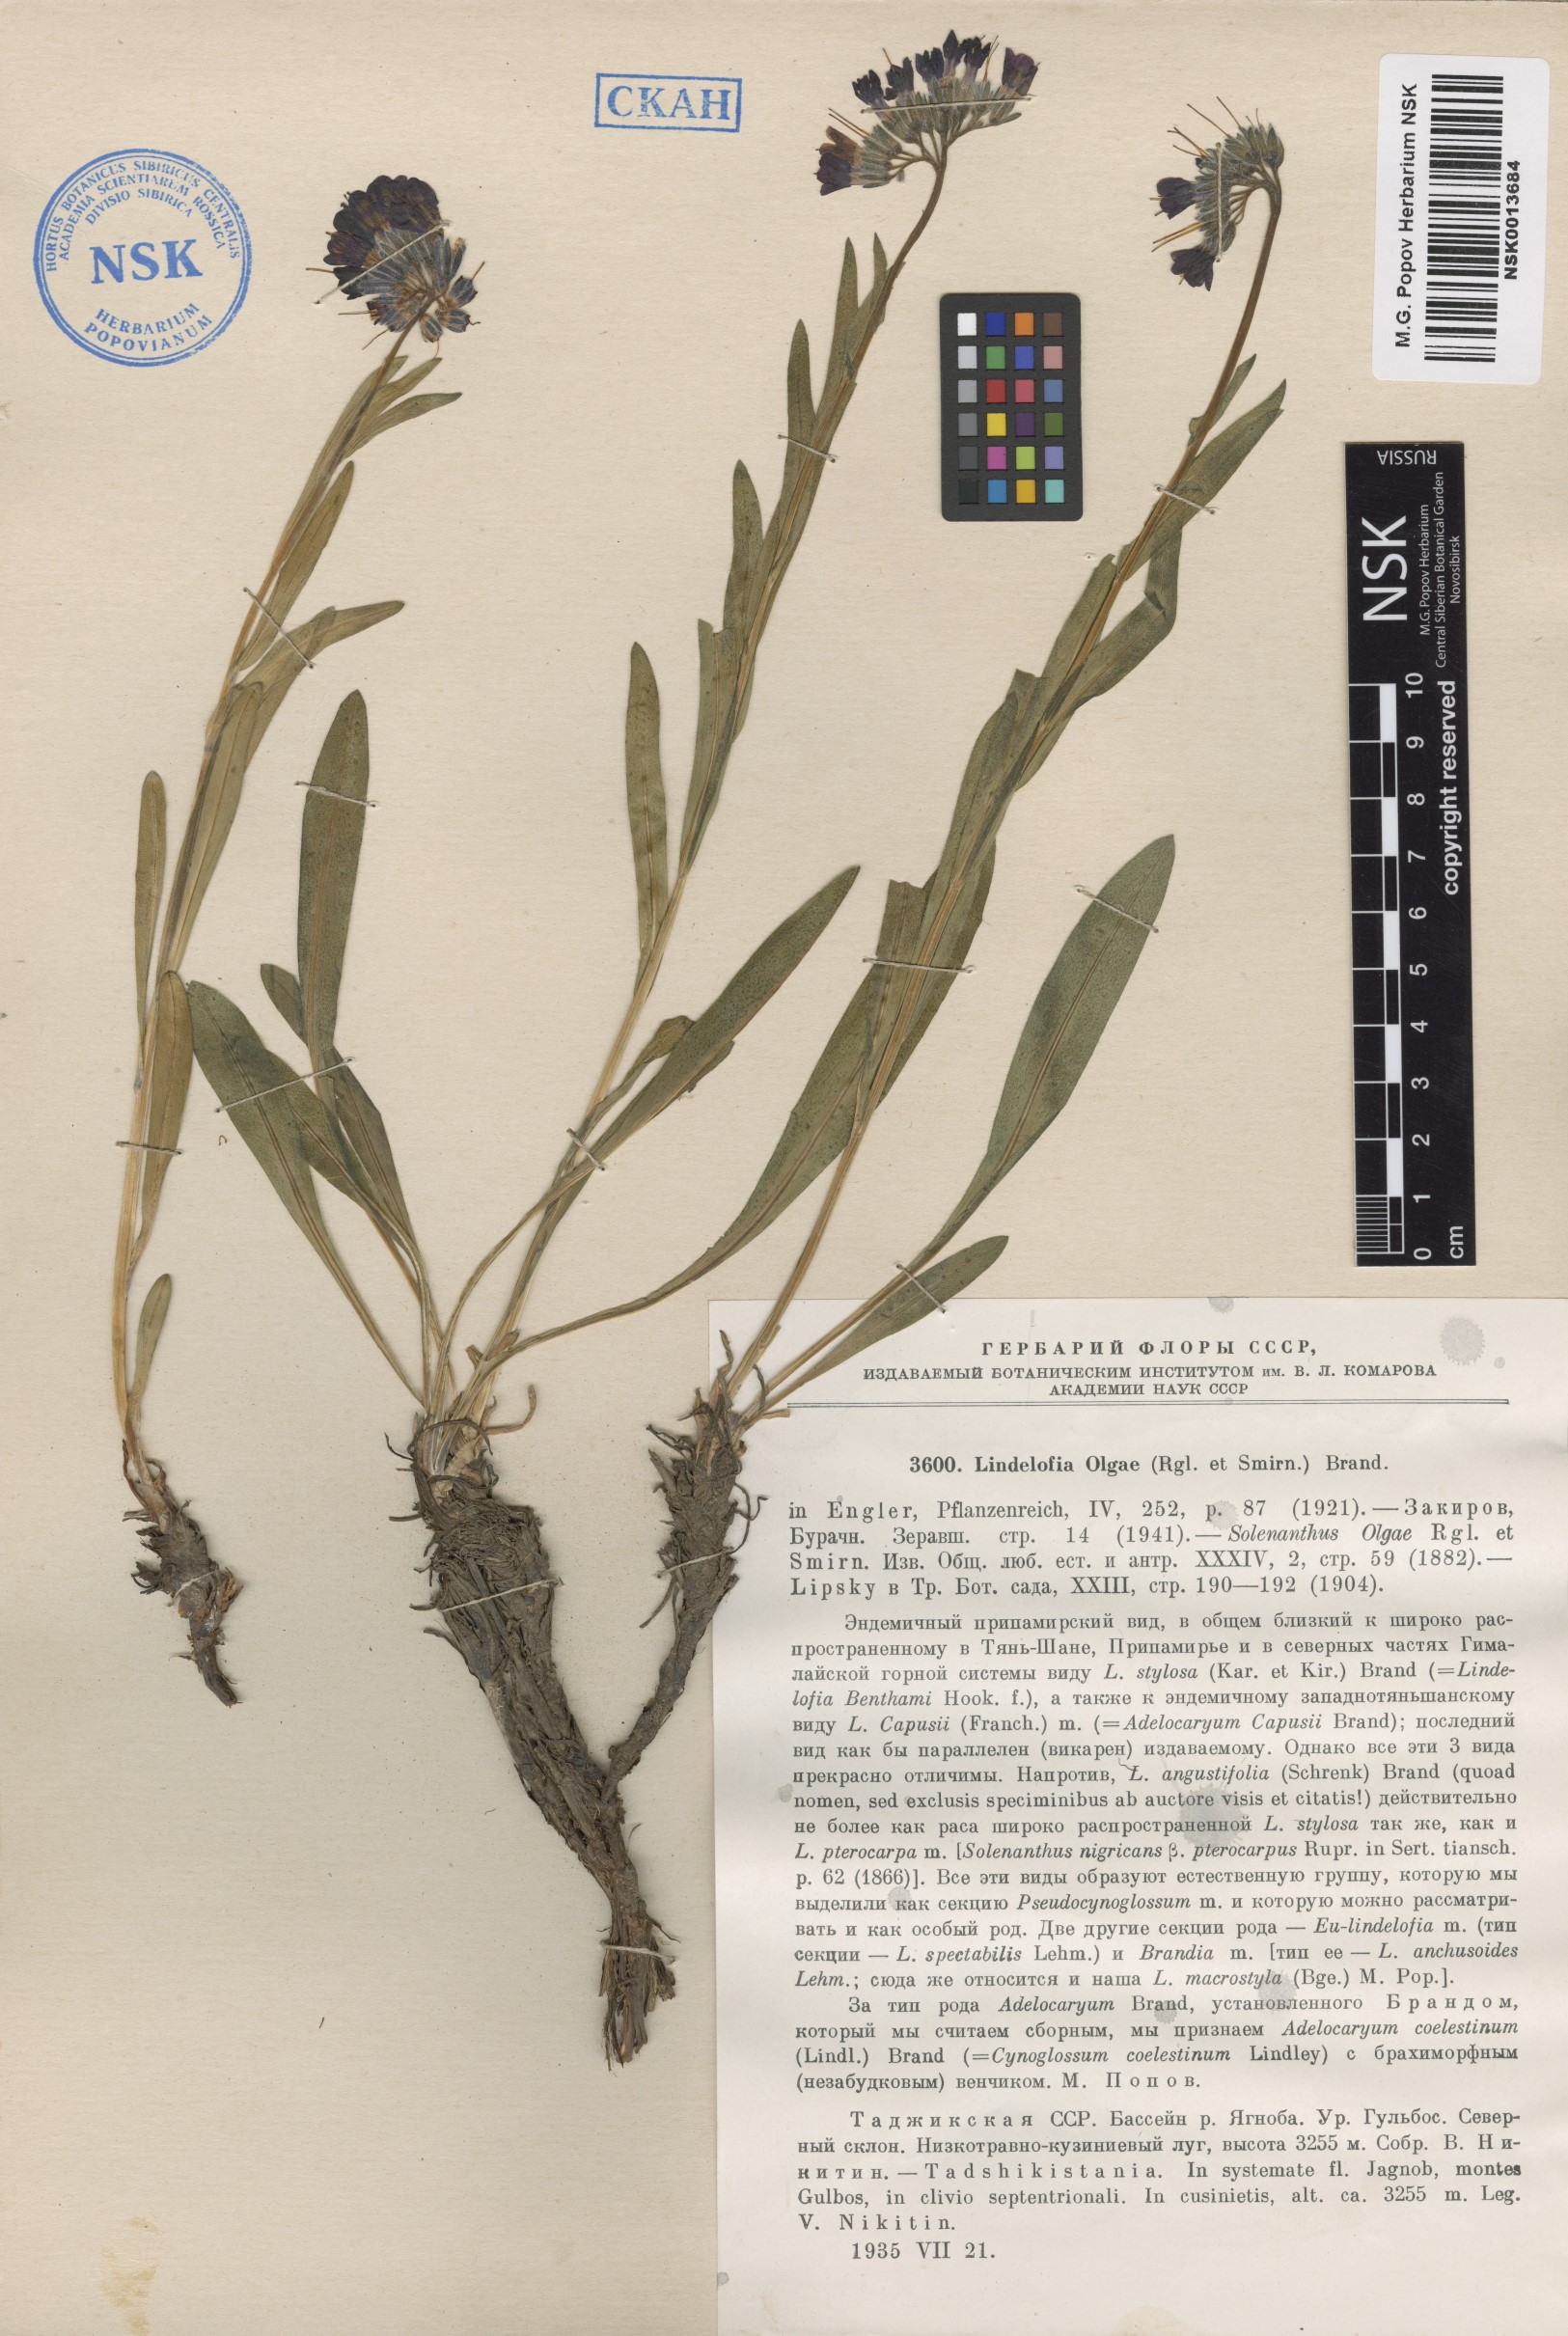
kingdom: Plantae
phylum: Tracheophyta
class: Magnoliopsida
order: Boraginales
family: Boraginaceae
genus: Lindelofia
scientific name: Lindelofia olgae
